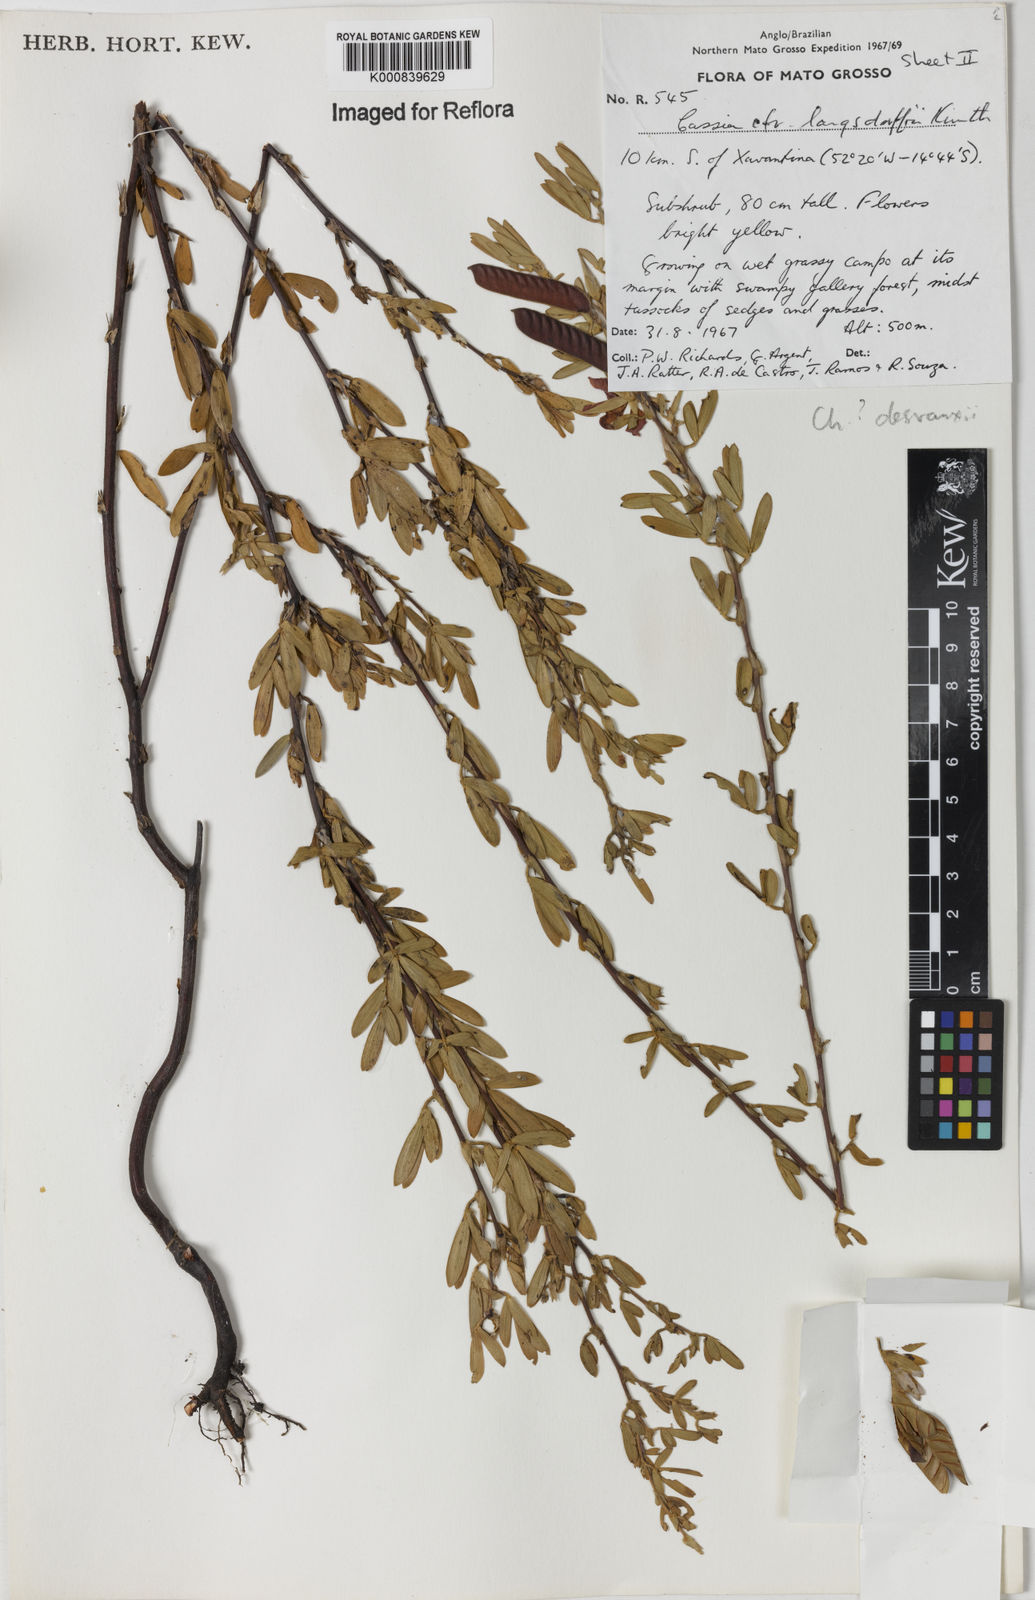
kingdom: Plantae
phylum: Tracheophyta
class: Magnoliopsida
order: Fabales
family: Fabaceae
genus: Chamaecrista
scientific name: Chamaecrista desvauxii
